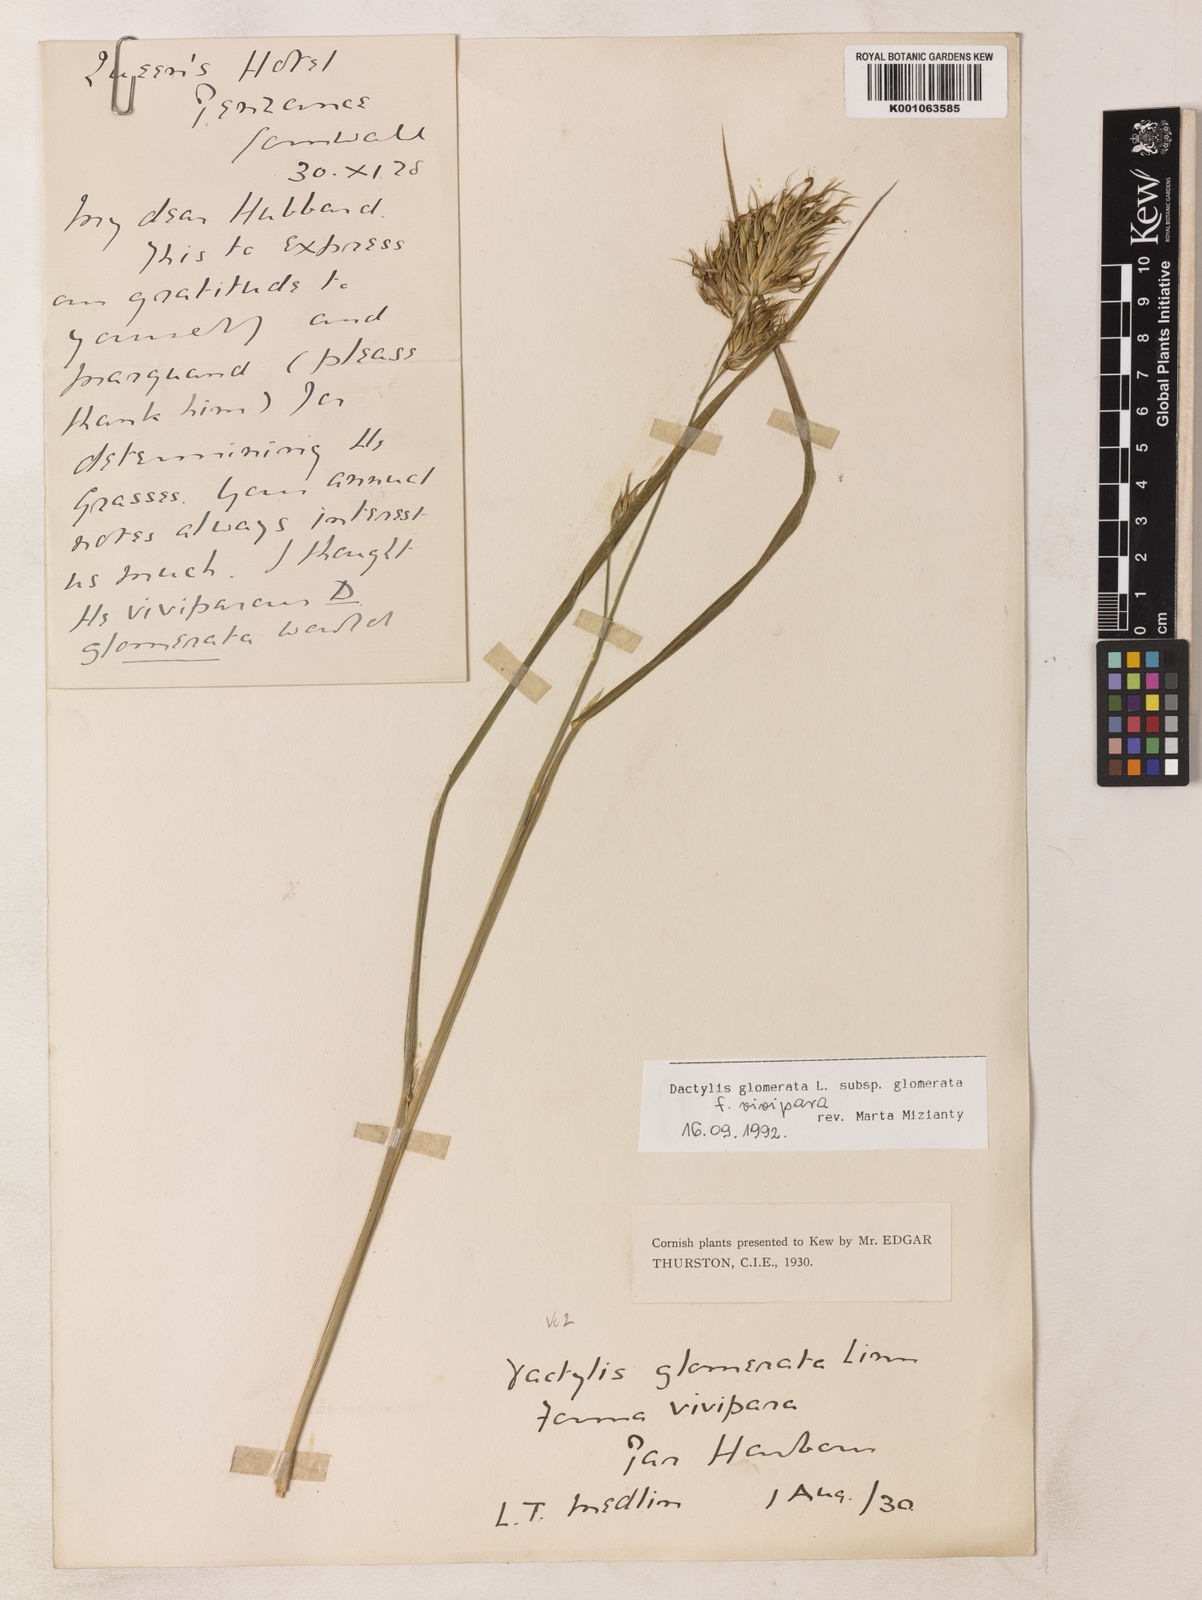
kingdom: Plantae
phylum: Tracheophyta
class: Liliopsida
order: Poales
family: Poaceae
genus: Dactylis
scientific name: Dactylis glomerata
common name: Orchardgrass
